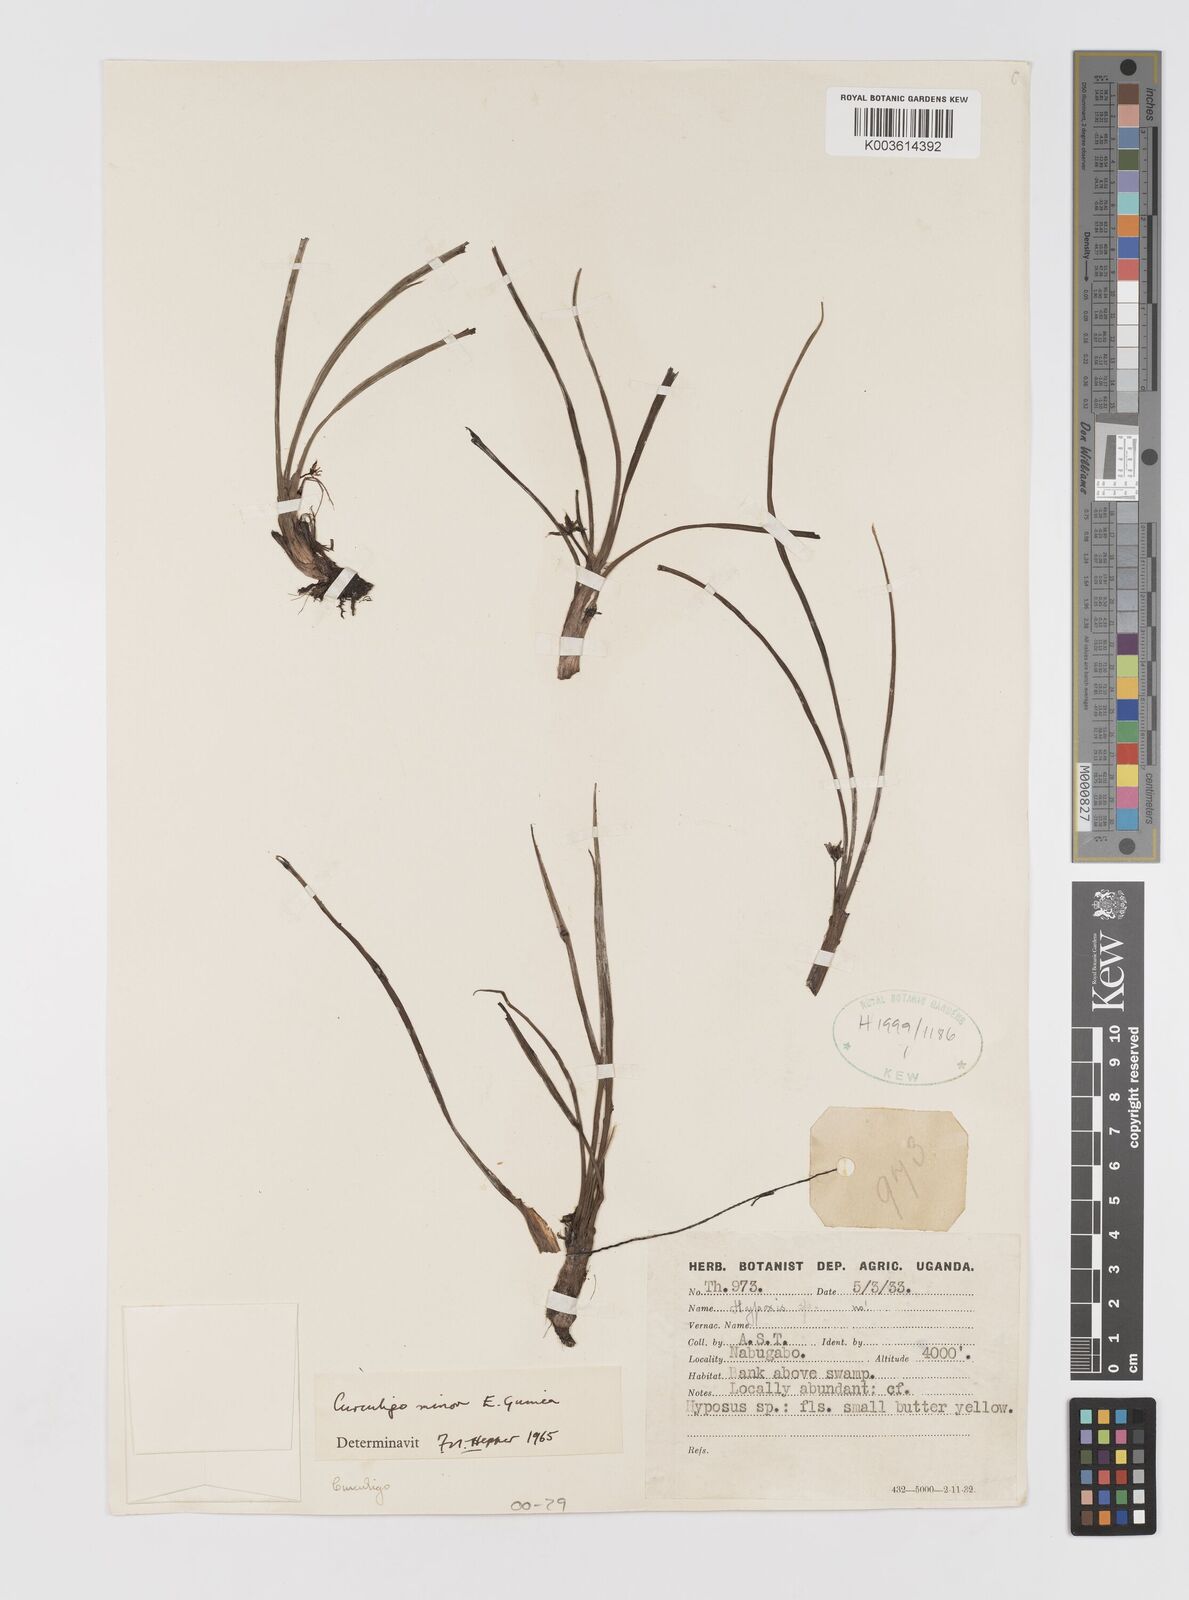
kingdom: Plantae
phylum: Tracheophyta
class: Liliopsida
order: Asparagales
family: Hypoxidaceae
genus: Curculigo
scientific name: Curculigo pilosa
